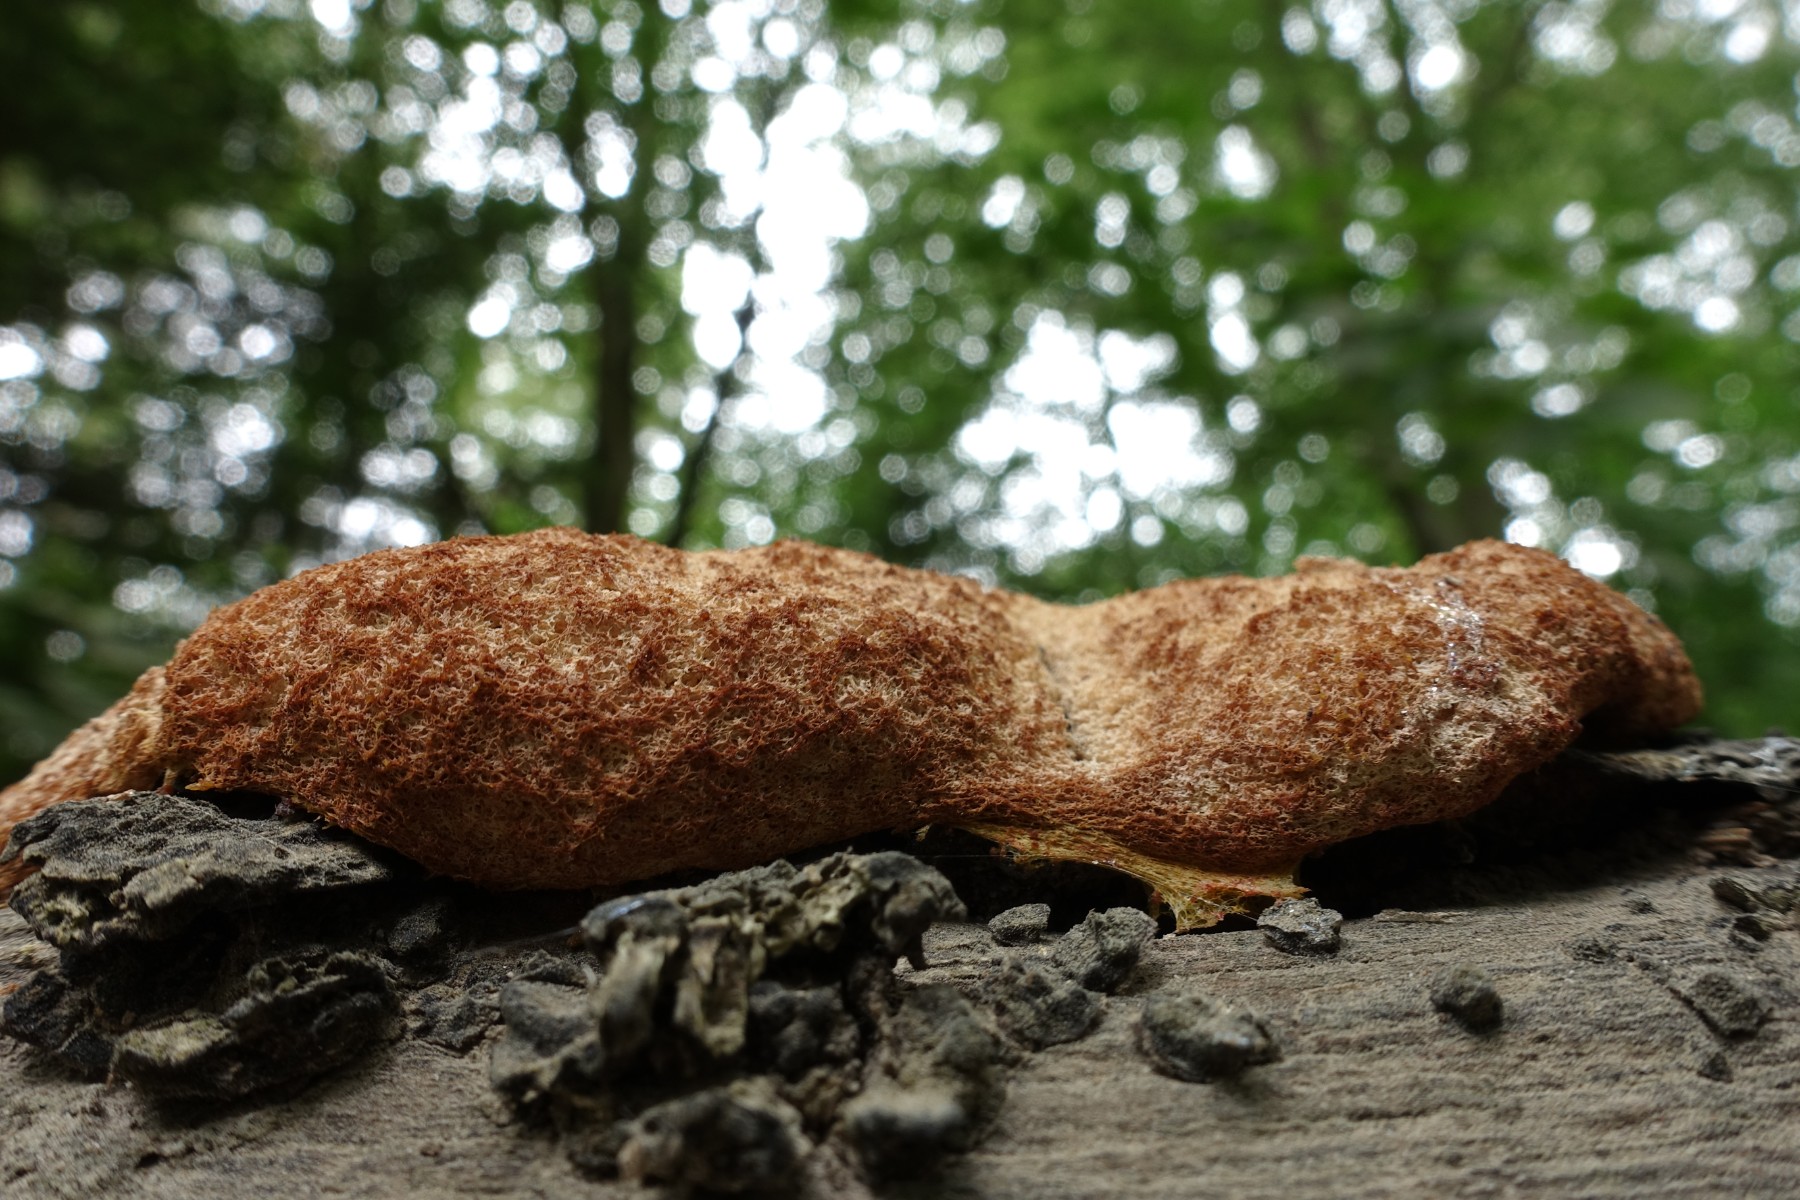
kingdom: Protozoa
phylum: Mycetozoa
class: Myxomycetes
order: Physarales
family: Physaraceae
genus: Fuligo
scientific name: Fuligo septica
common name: Dog vomit slime mold
